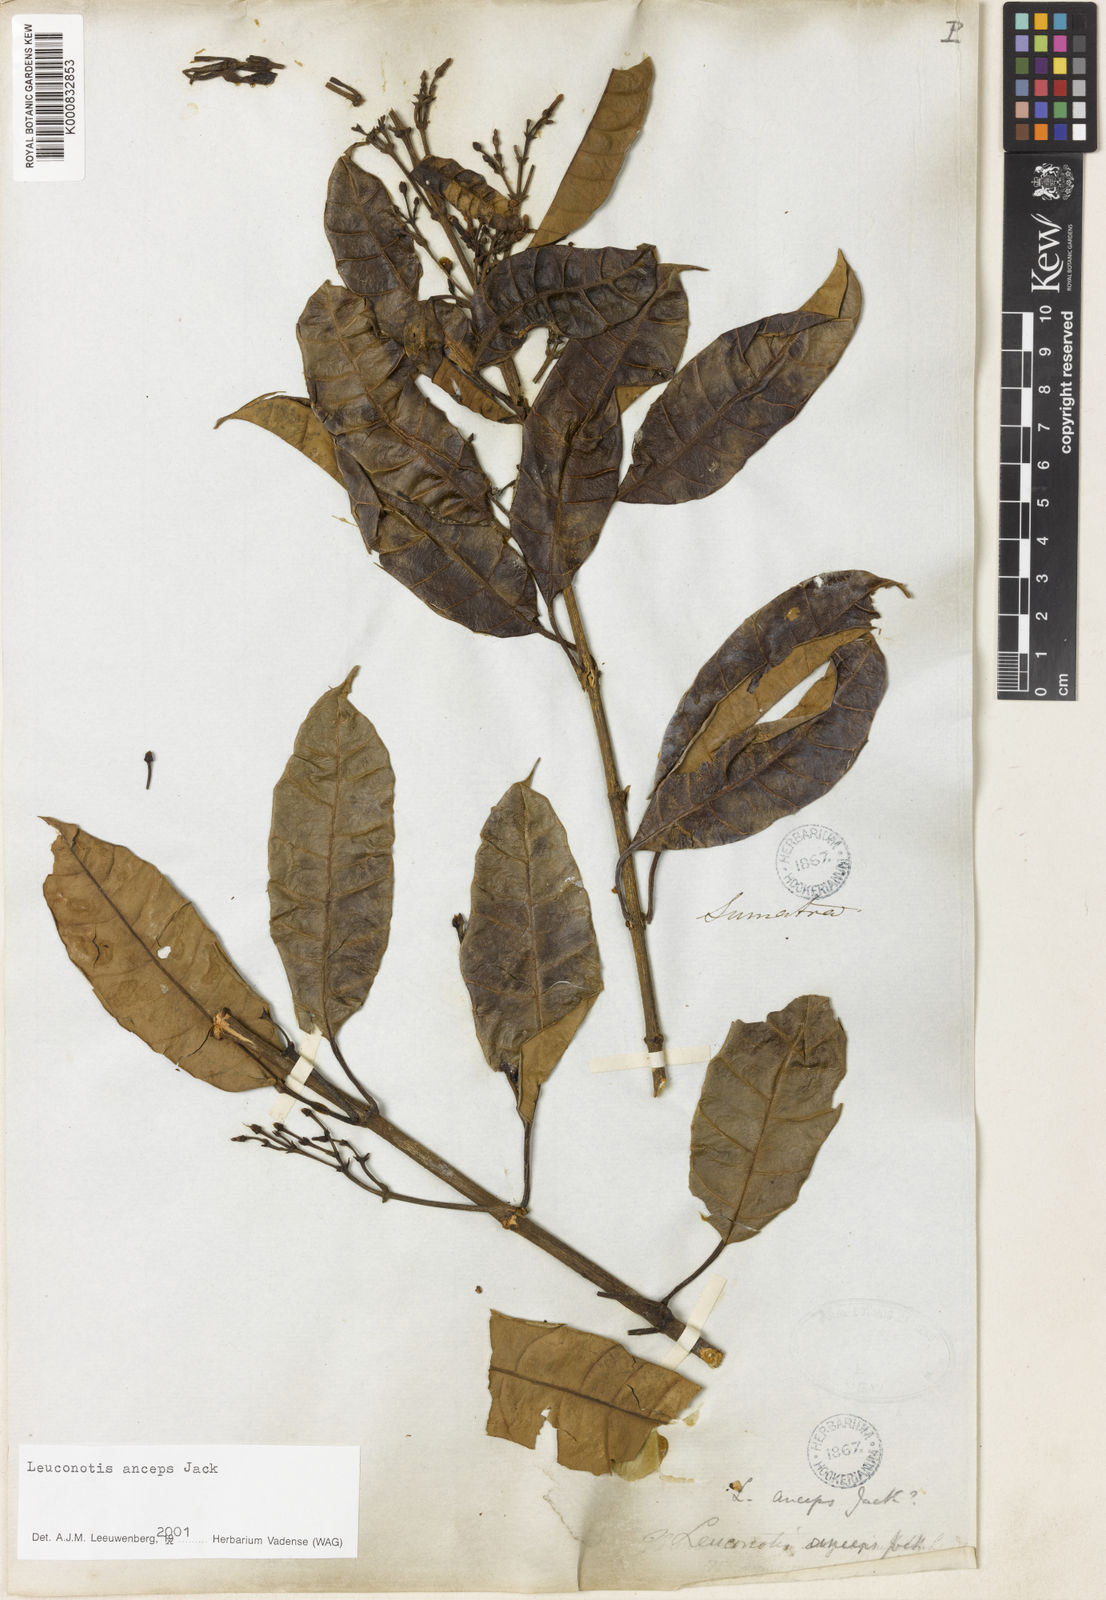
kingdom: Plantae
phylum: Tracheophyta
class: Magnoliopsida
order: Gentianales
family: Apocynaceae
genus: Leuconotis
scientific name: Leuconotis anceps
